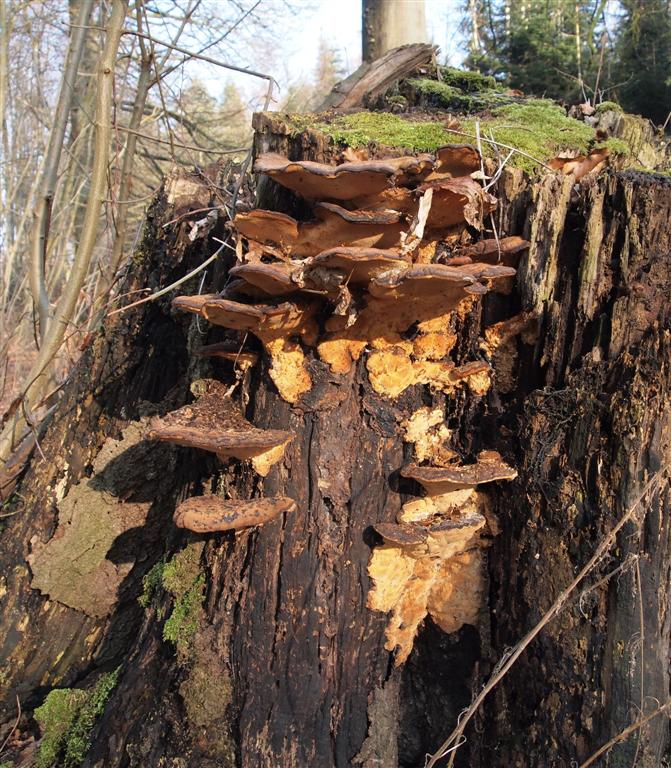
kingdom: Fungi
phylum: Basidiomycota
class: Agaricomycetes
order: Polyporales
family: Ischnodermataceae
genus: Ischnoderma
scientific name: Ischnoderma resinosum
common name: løv-tjæreporesvamp
